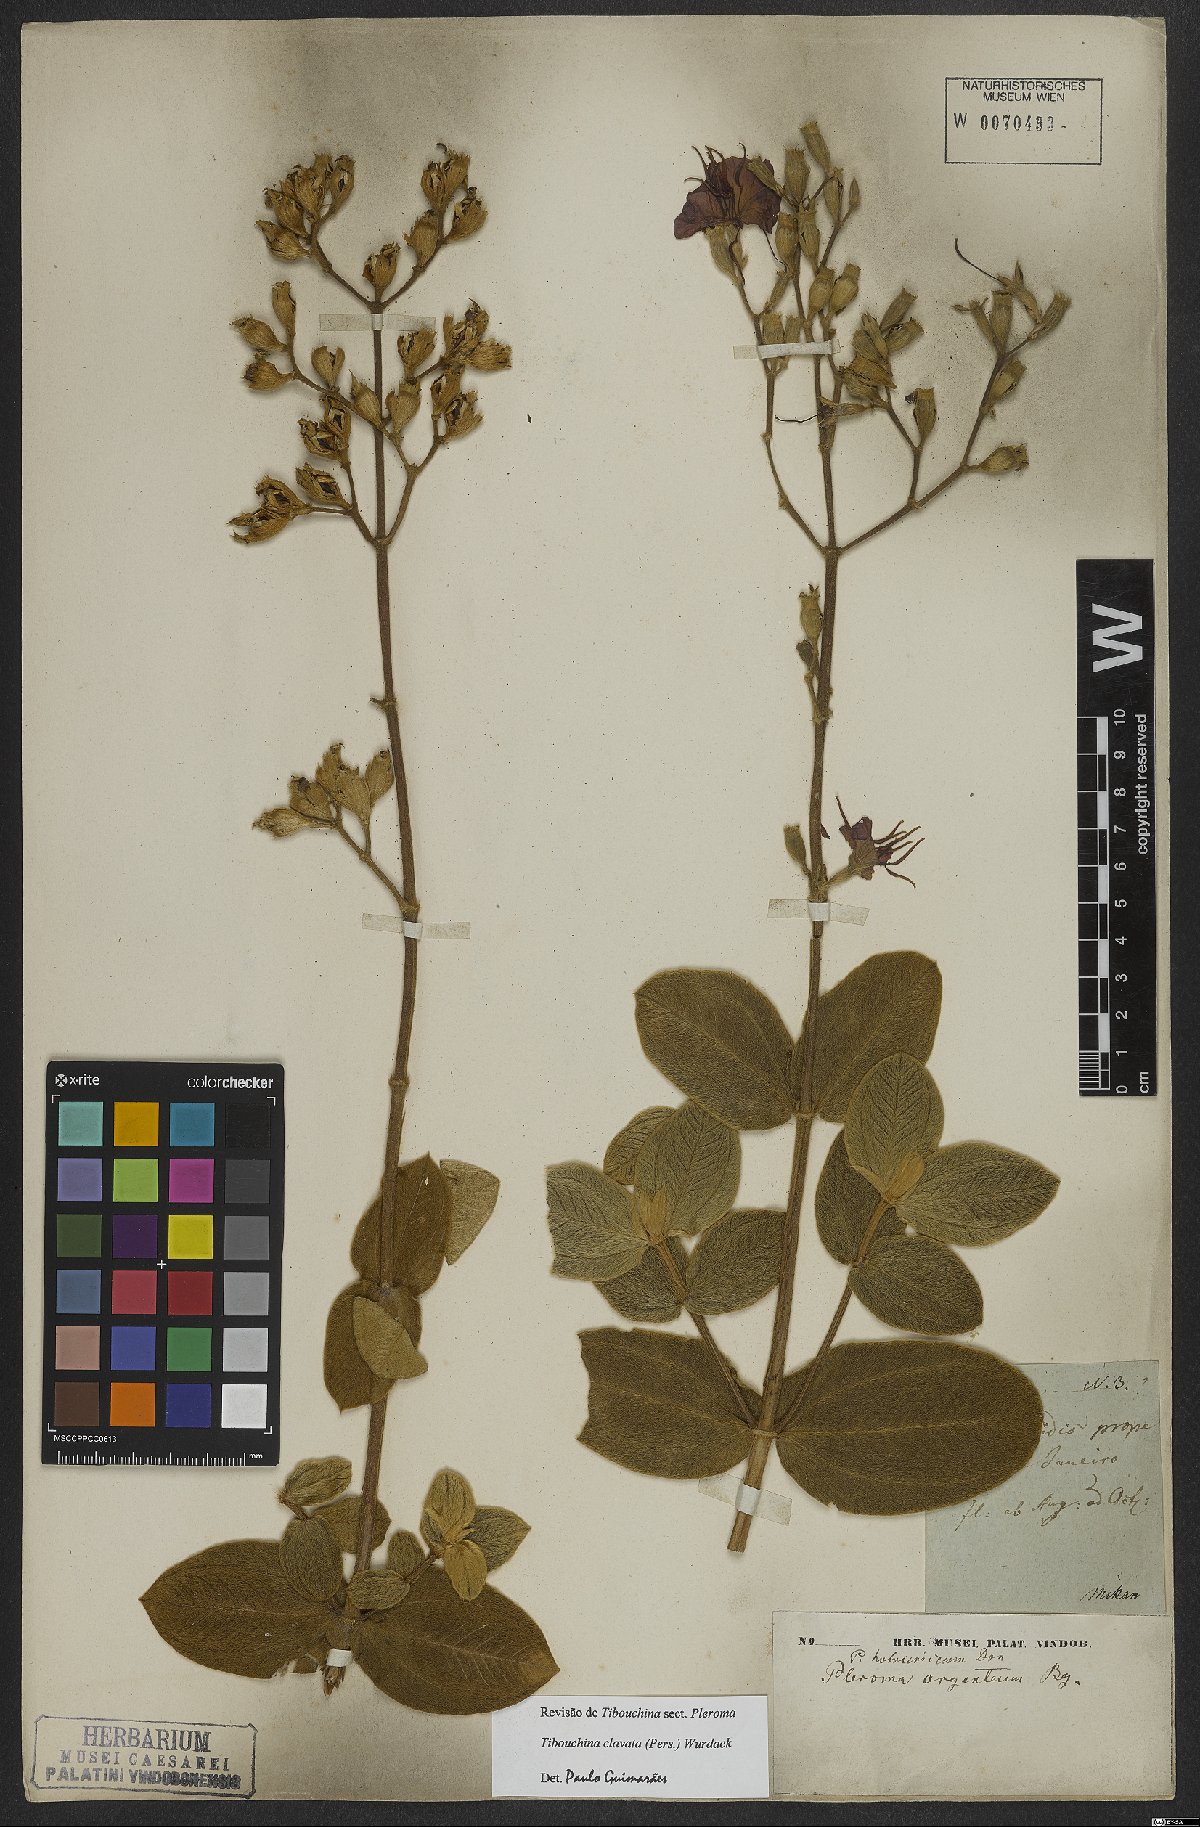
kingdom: Plantae
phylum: Tracheophyta
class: Magnoliopsida
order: Myrtales
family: Melastomataceae
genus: Pleroma
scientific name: Pleroma clavatum
